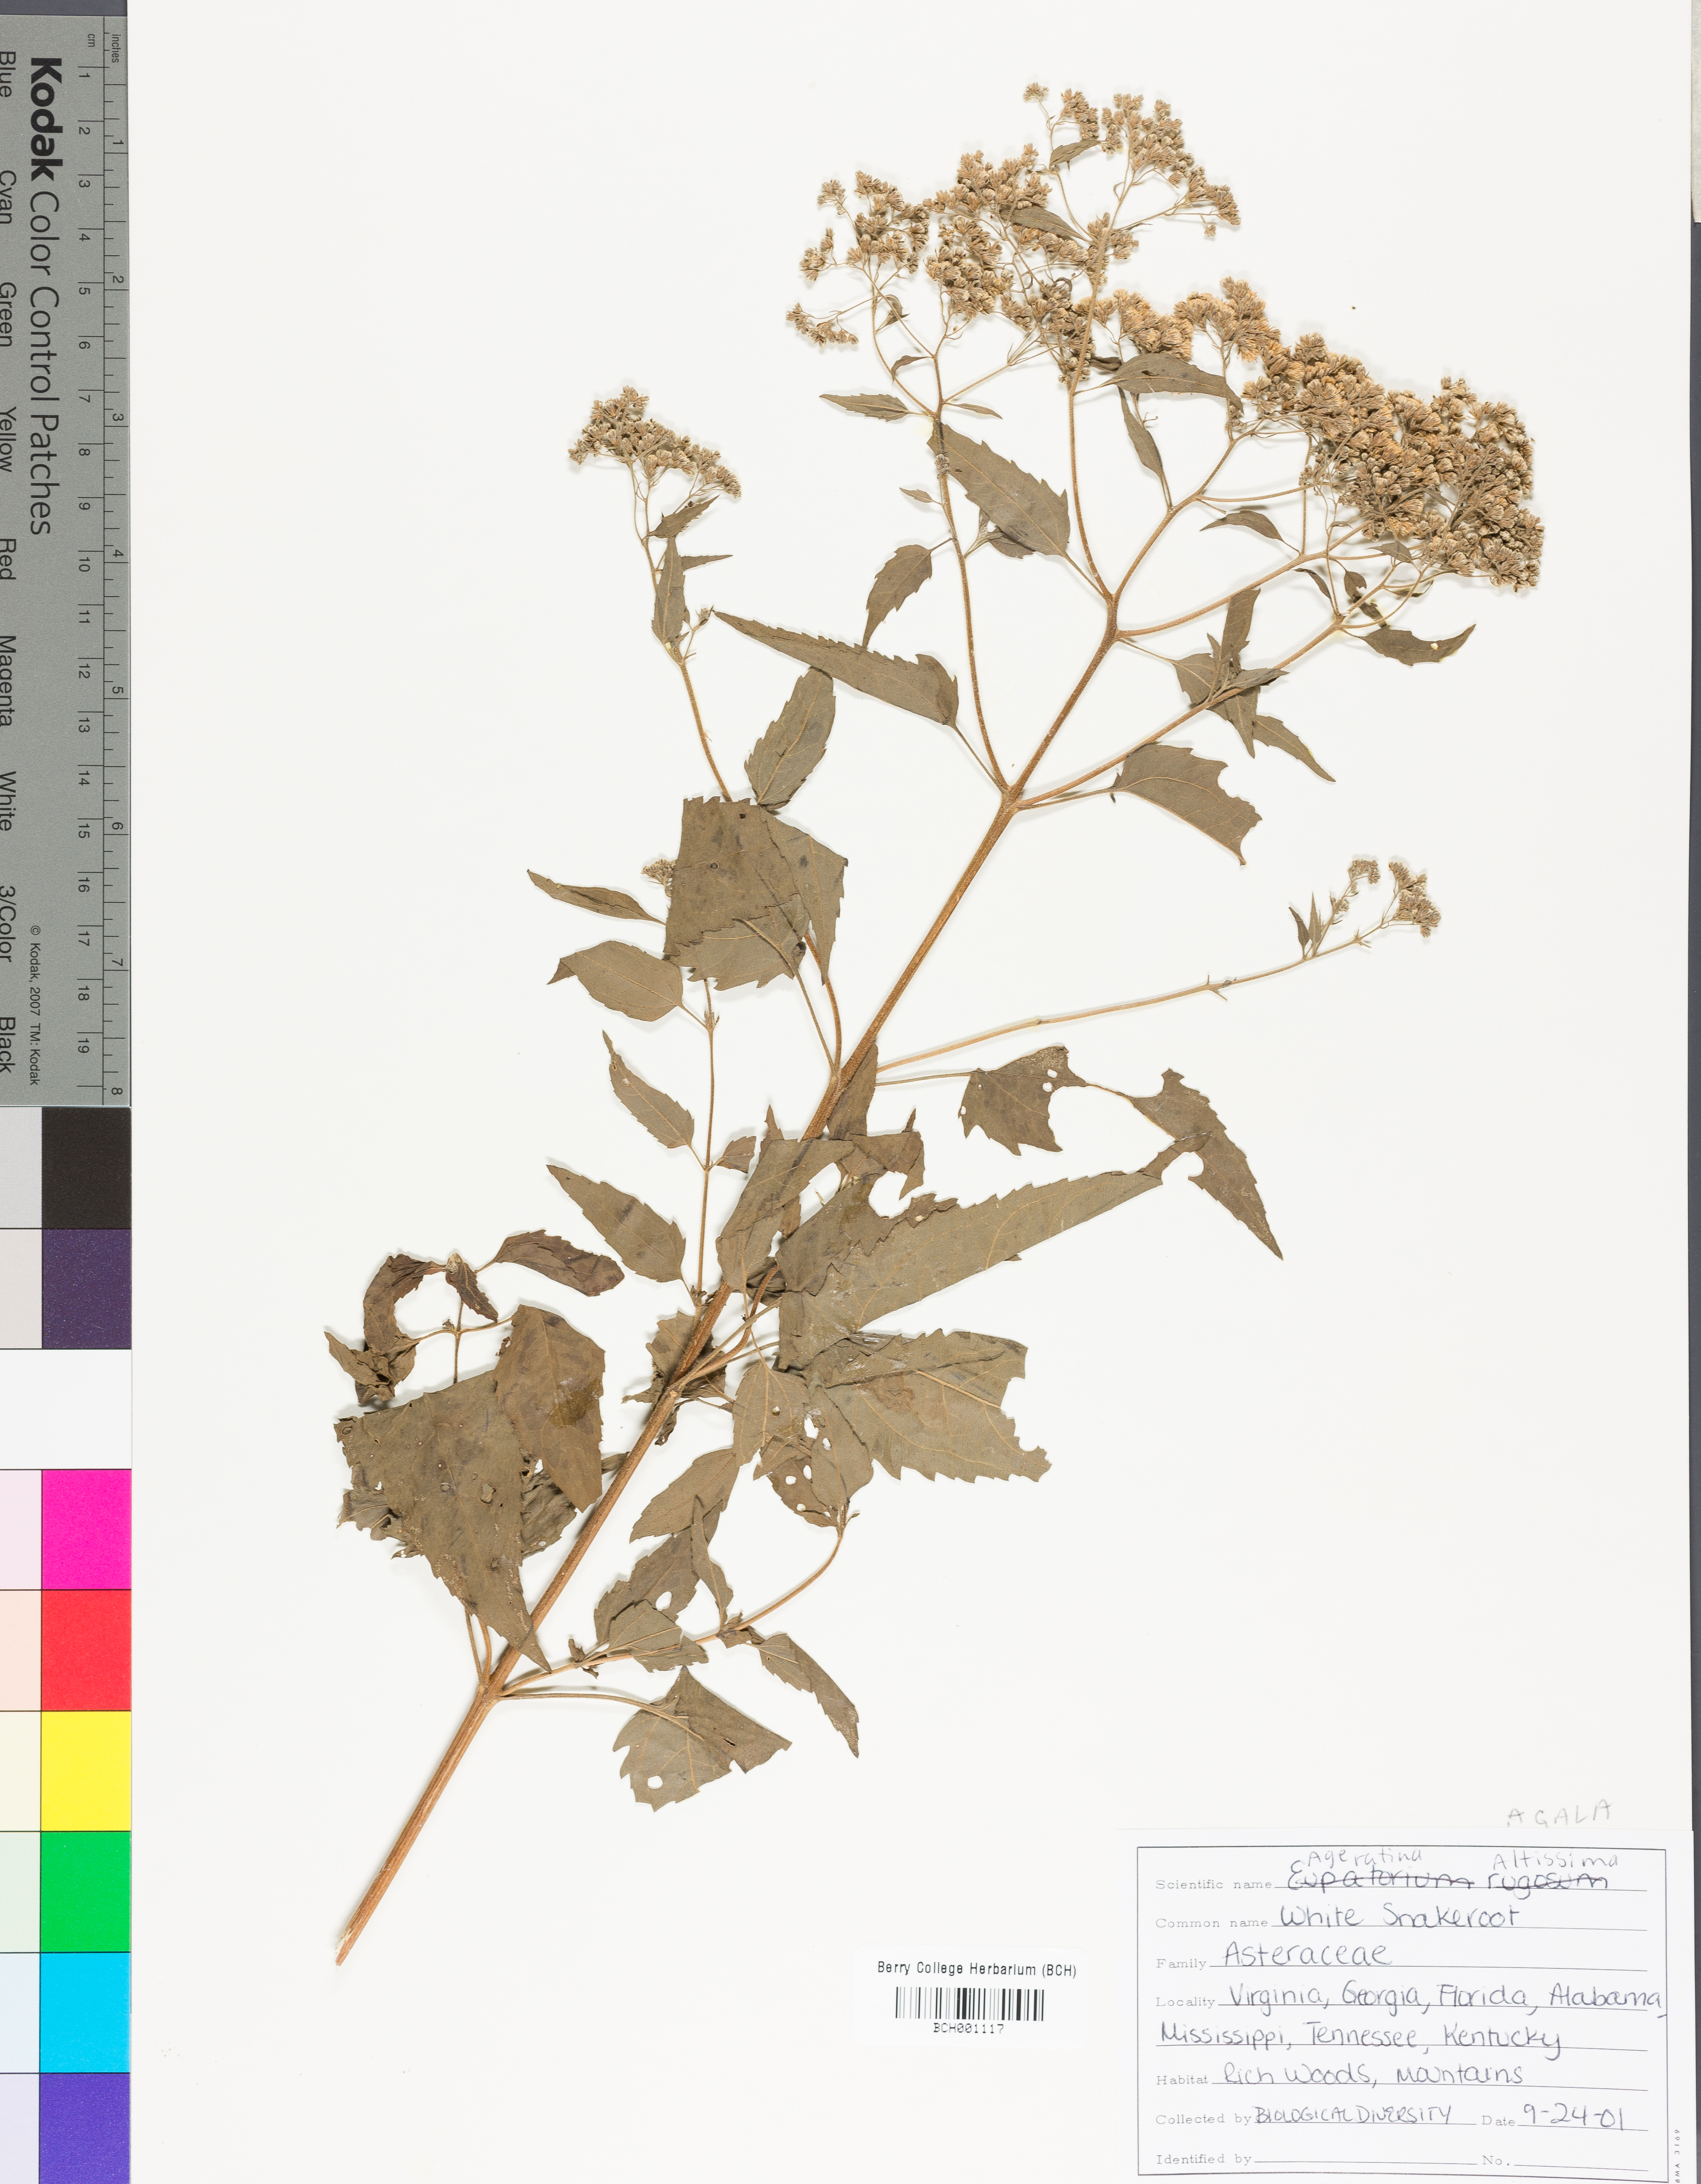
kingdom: Plantae
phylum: Tracheophyta
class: Magnoliopsida
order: Asterales
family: Asteraceae
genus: Ageratina
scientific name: Ageratina altissima
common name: White snakeroot
